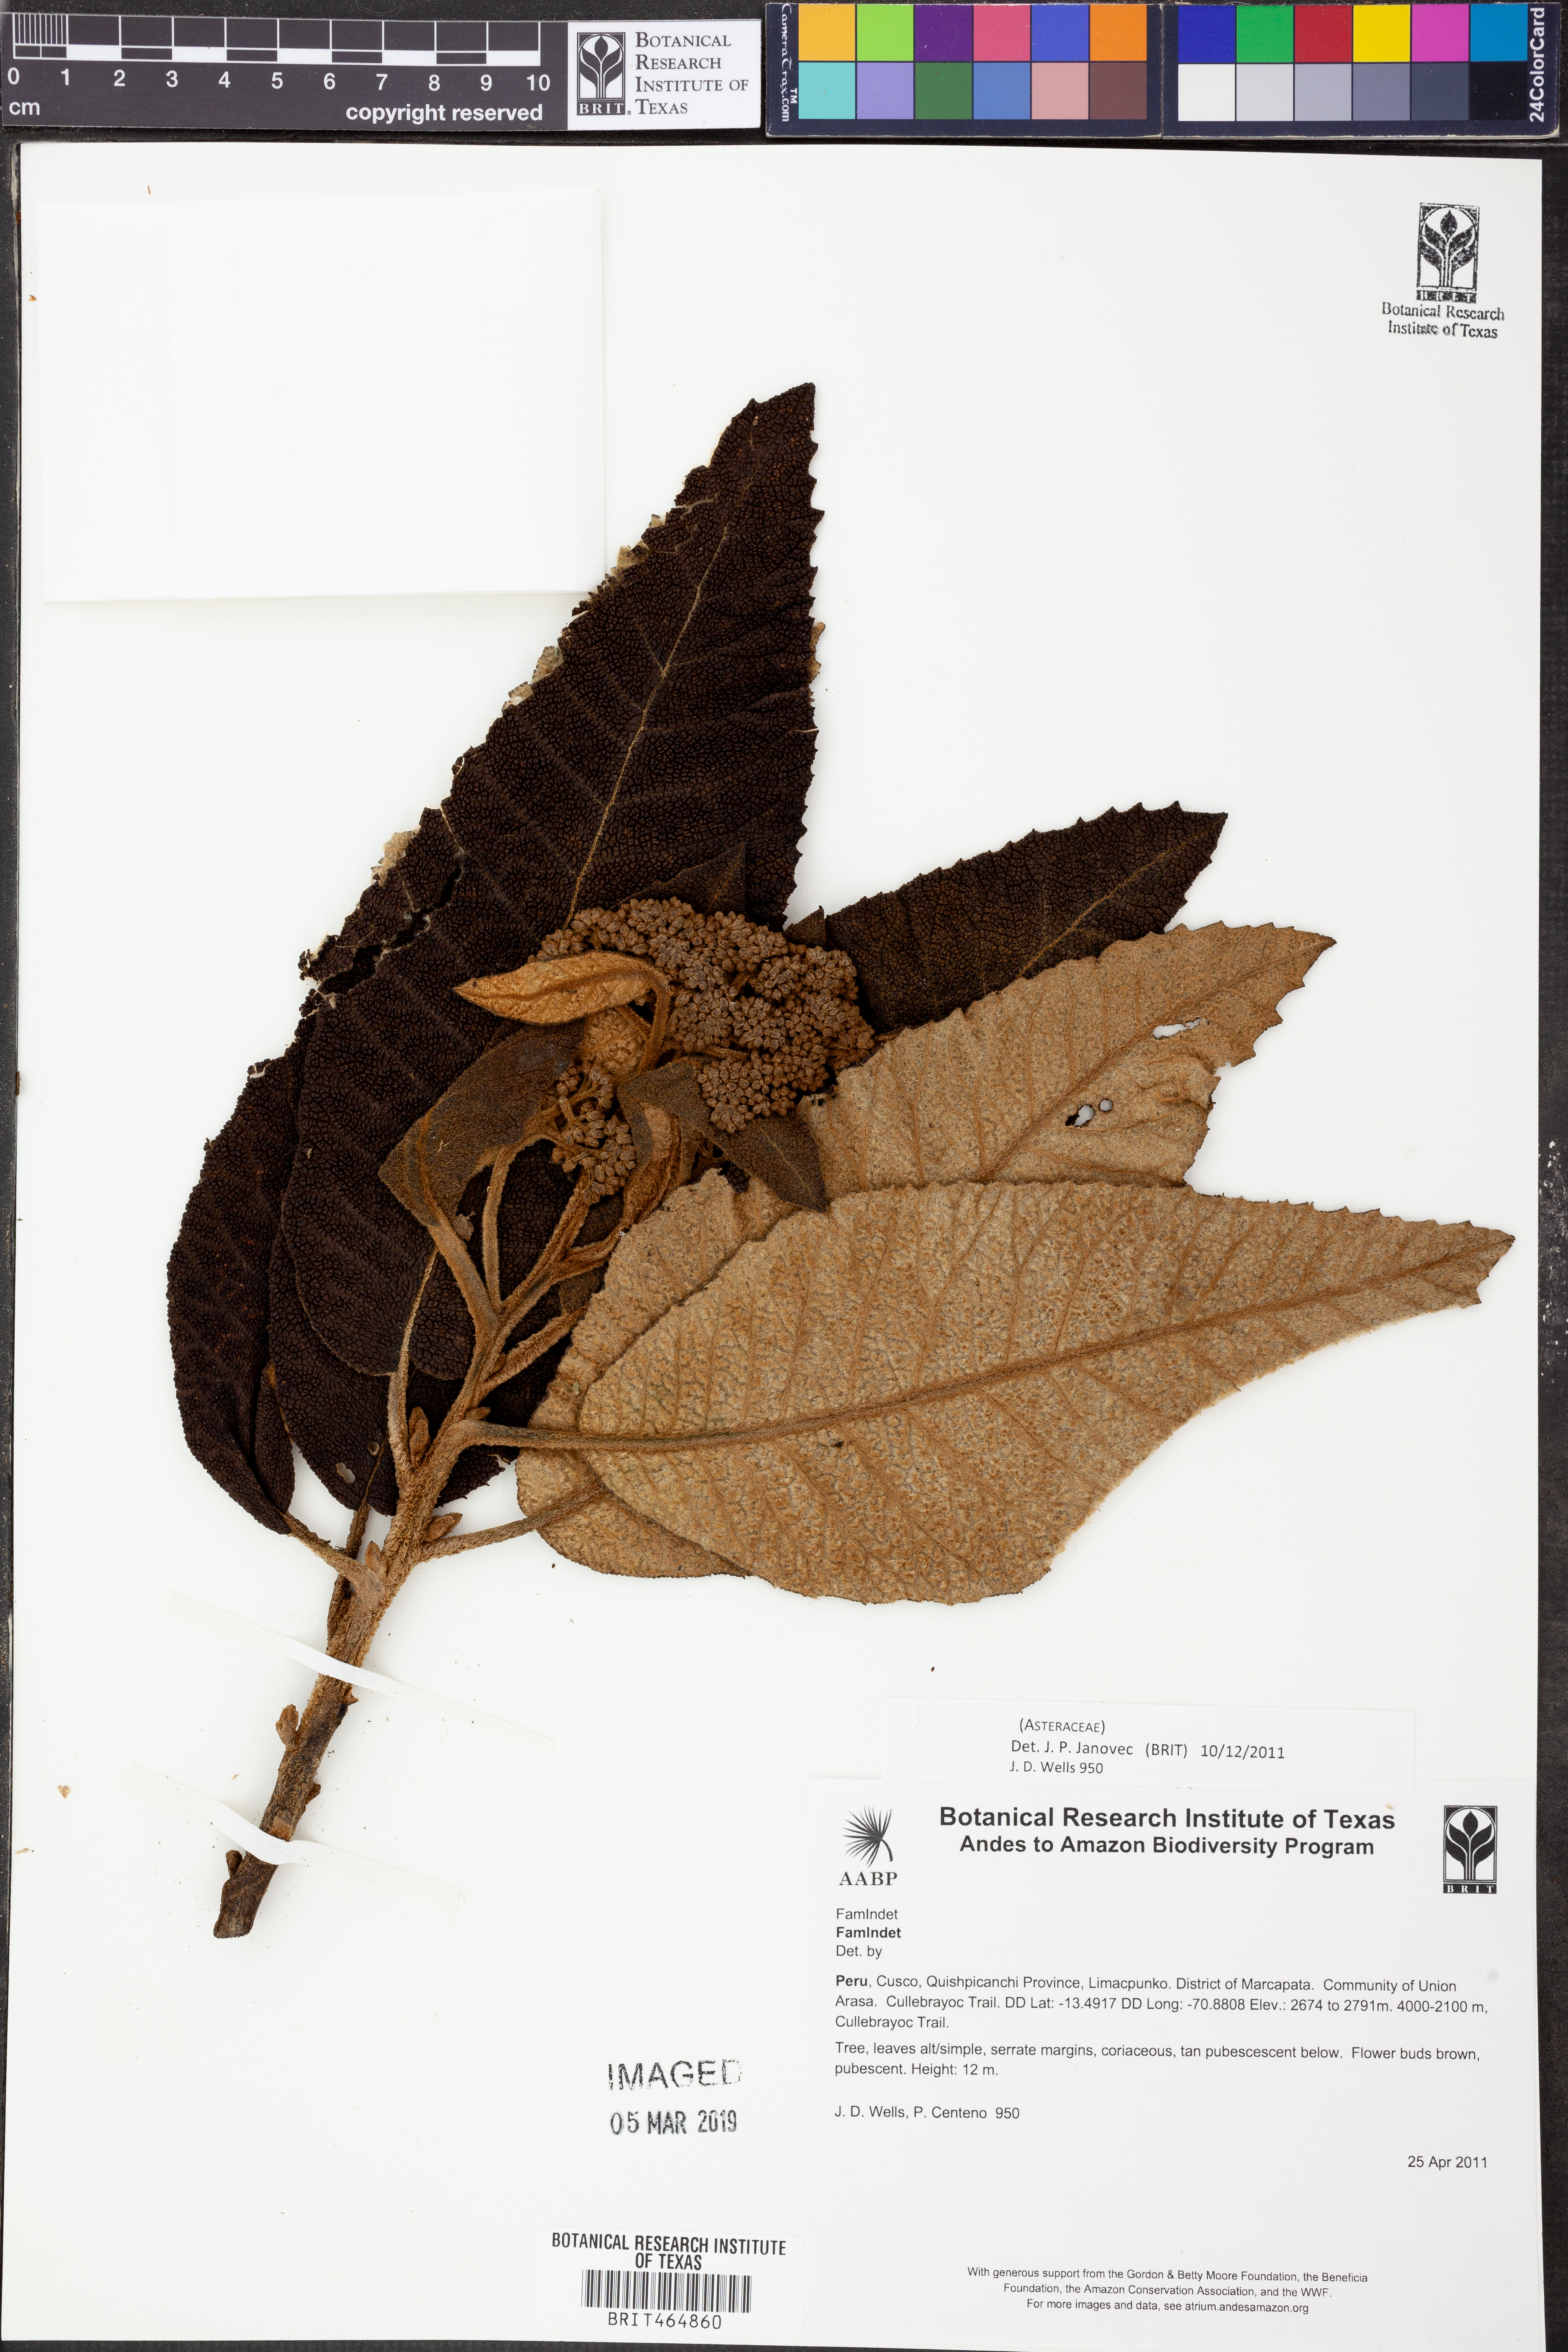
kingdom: Plantae
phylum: Tracheophyta
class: Magnoliopsida
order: Asterales
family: Asteraceae
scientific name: Asteraceae
